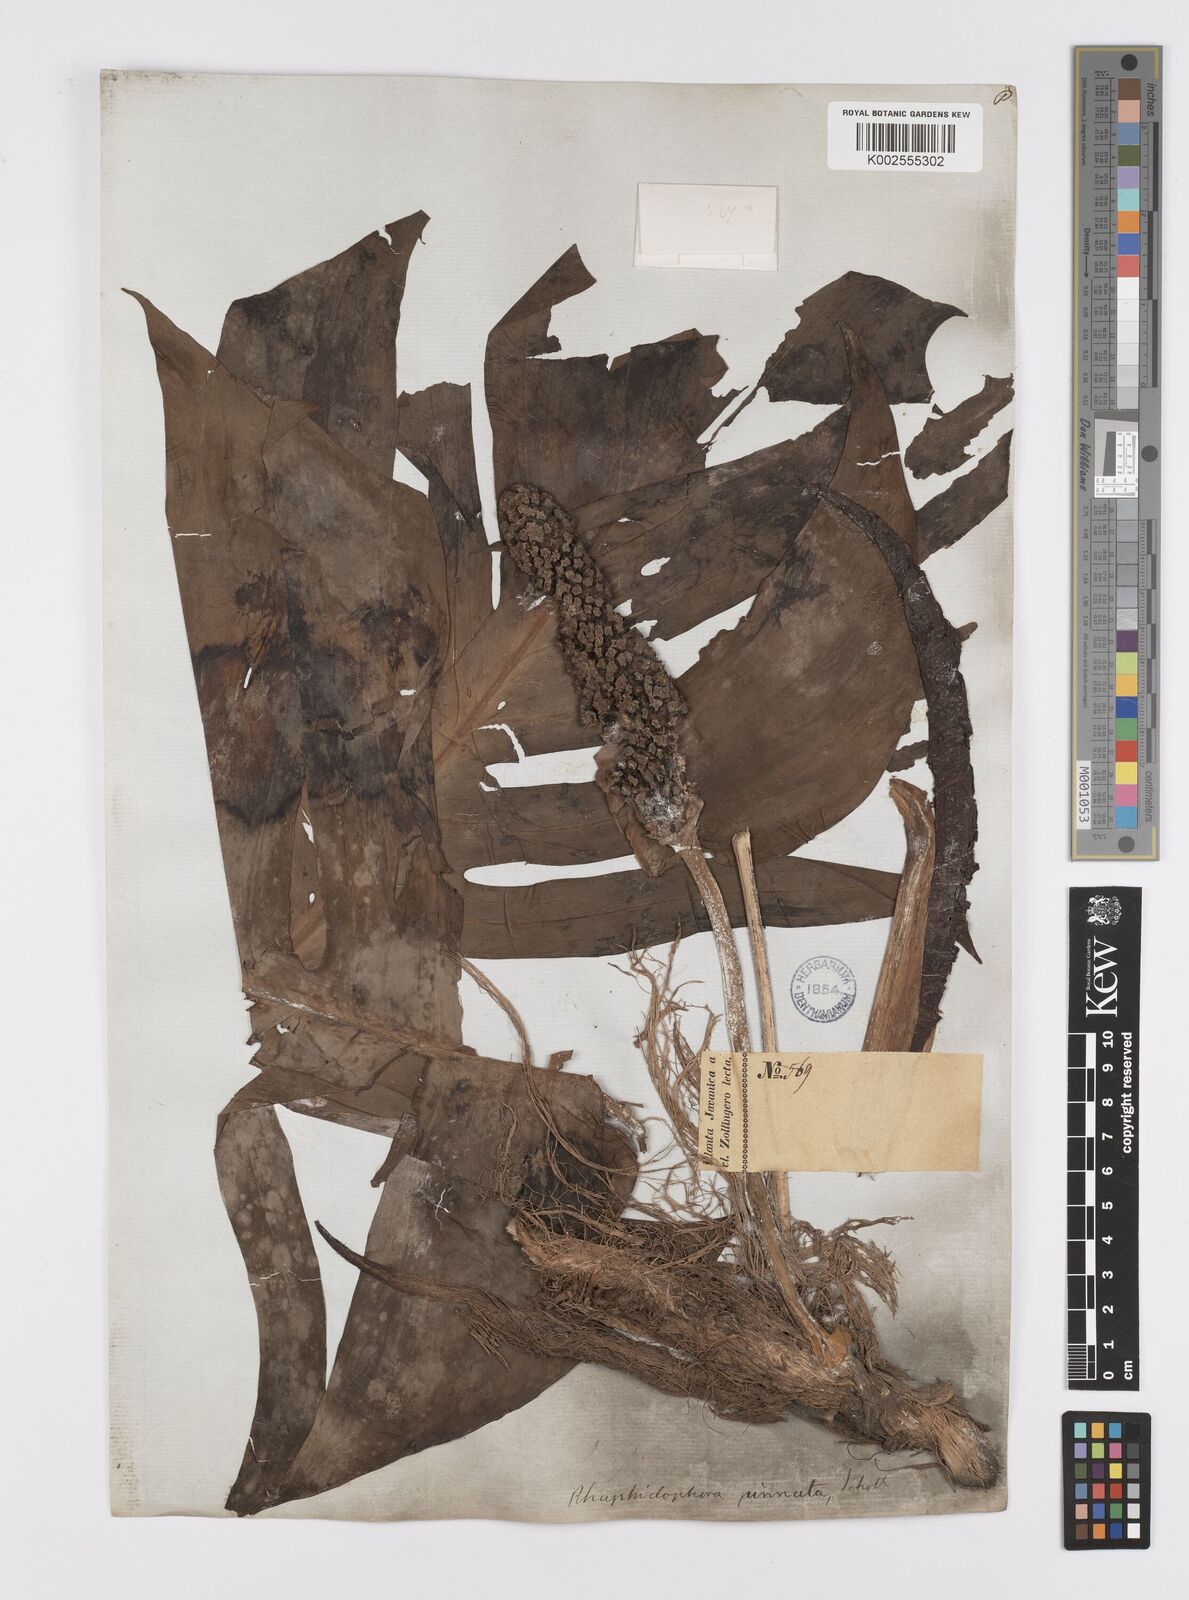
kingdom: Plantae
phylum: Tracheophyta
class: Liliopsida
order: Alismatales
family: Araceae
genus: Epipremnum
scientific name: Epipremnum pinnatum
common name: Centipede tongavine
